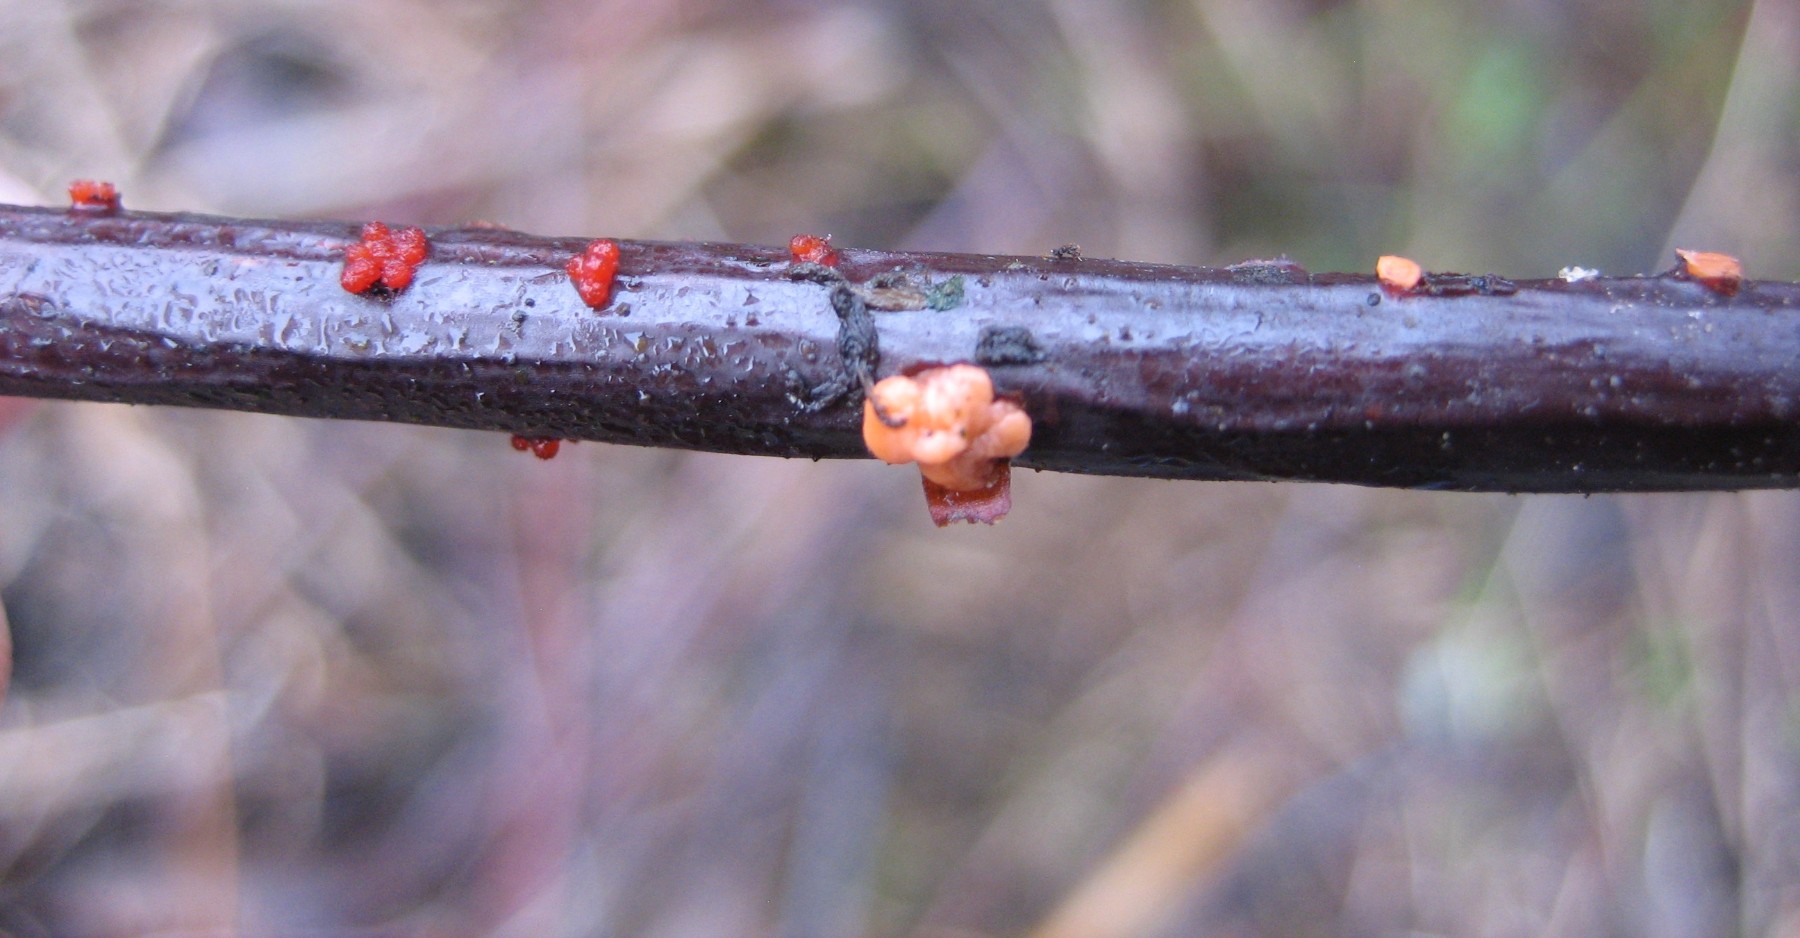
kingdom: Fungi
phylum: Ascomycota
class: Sordariomycetes
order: Hypocreales
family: Nectriaceae
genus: Nectria
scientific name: Nectria cinnabarina
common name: almindelig cinnobersvamp
